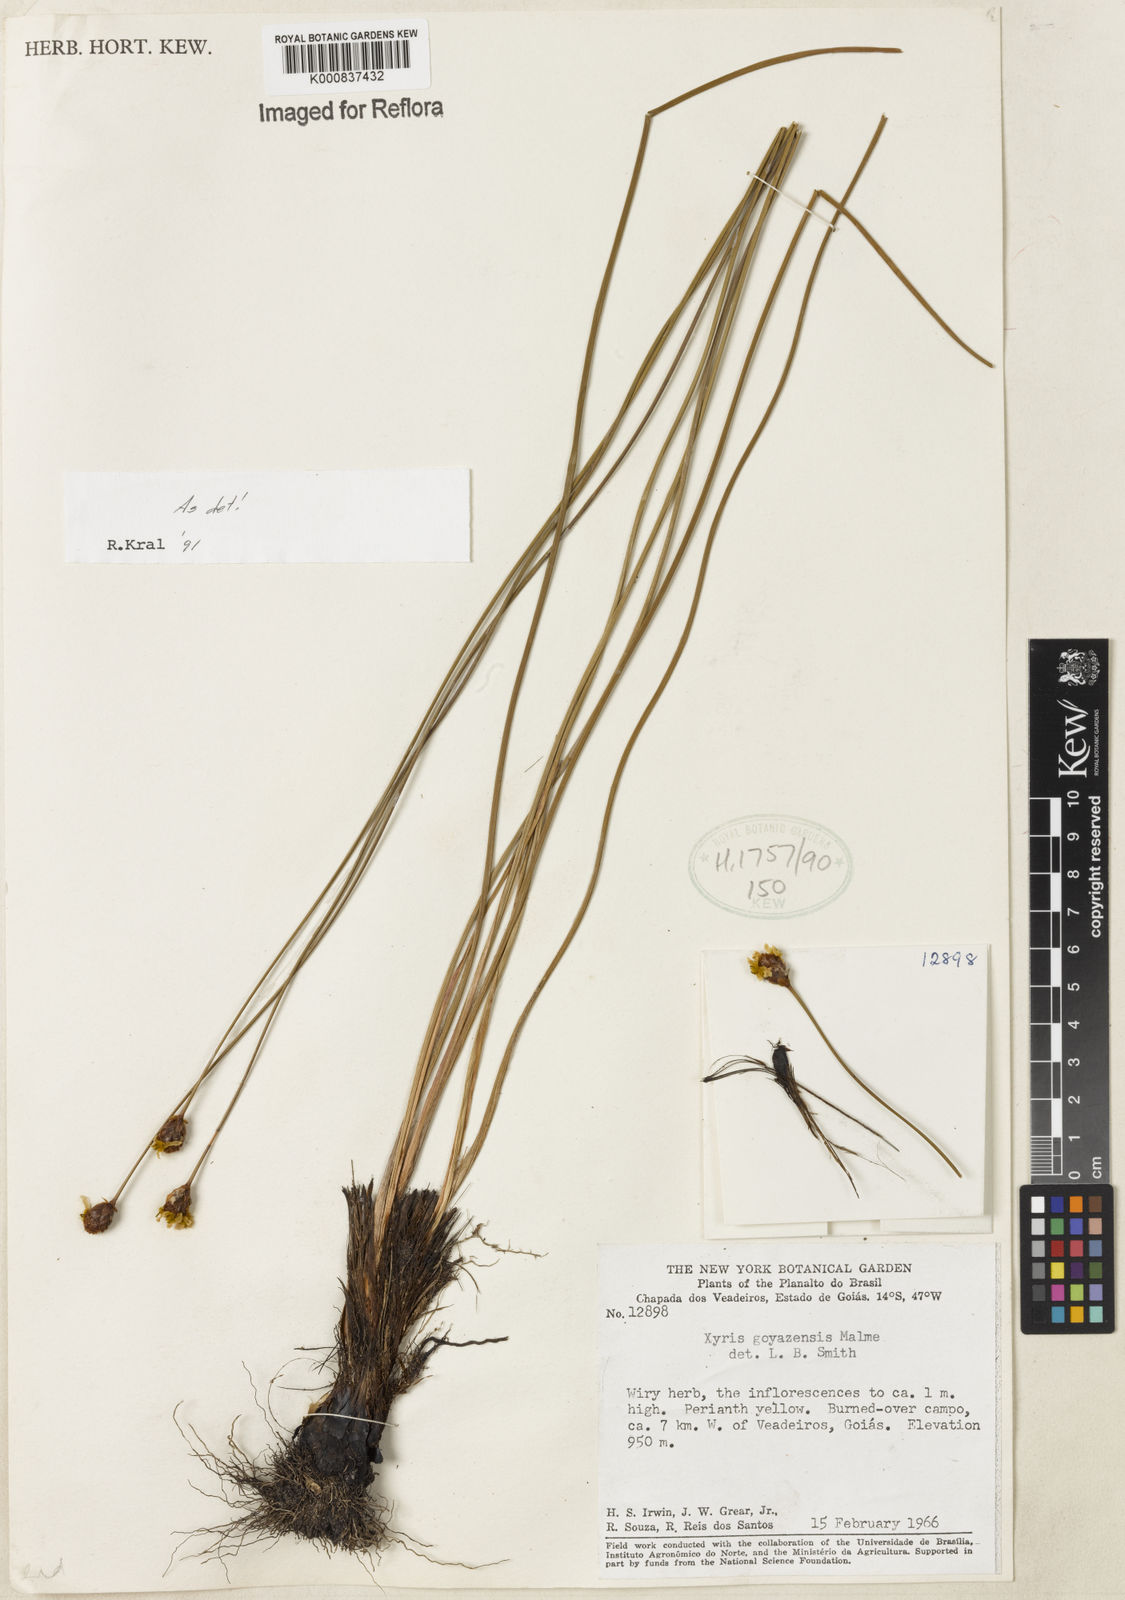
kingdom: Plantae
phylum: Tracheophyta
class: Liliopsida
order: Poales
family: Xyridaceae
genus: Xyris
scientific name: Xyris goyazensis
